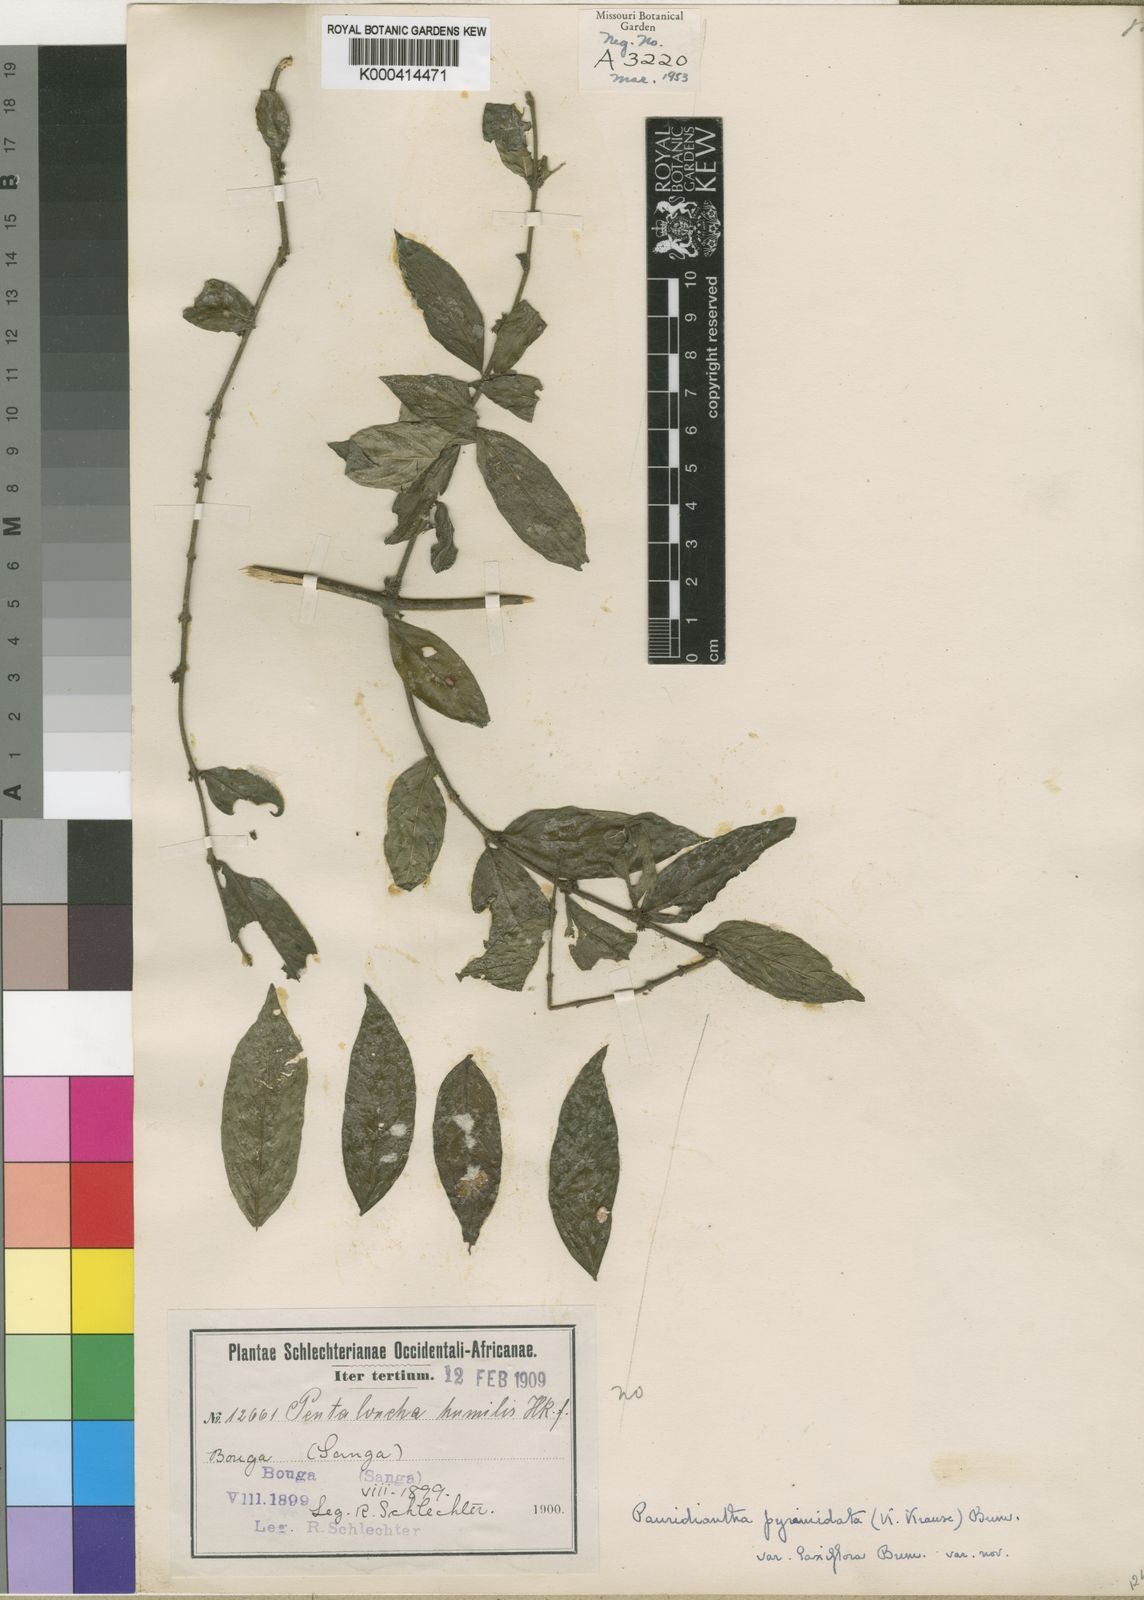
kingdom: Plantae
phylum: Tracheophyta
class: Magnoliopsida
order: Gentianales
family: Rubiaceae
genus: Pauridiantha
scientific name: Pauridiantha pyramidata
